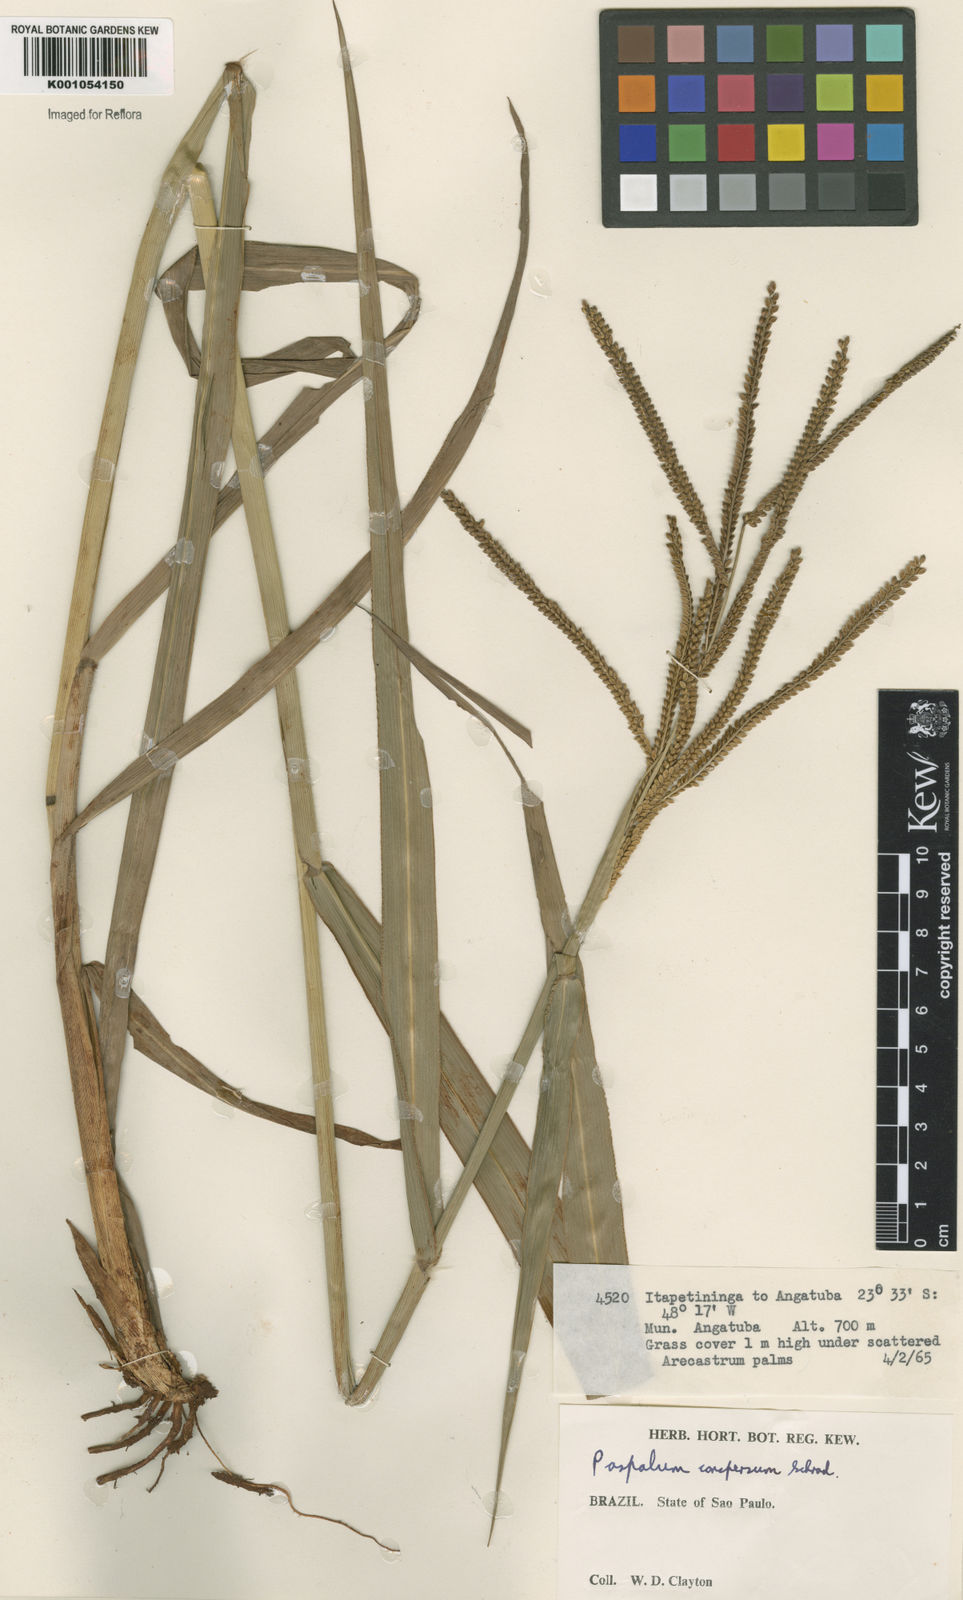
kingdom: Plantae
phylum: Tracheophyta
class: Liliopsida
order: Poales
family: Poaceae
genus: Paspalum
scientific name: Paspalum conspersum
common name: Scattered paspalum
